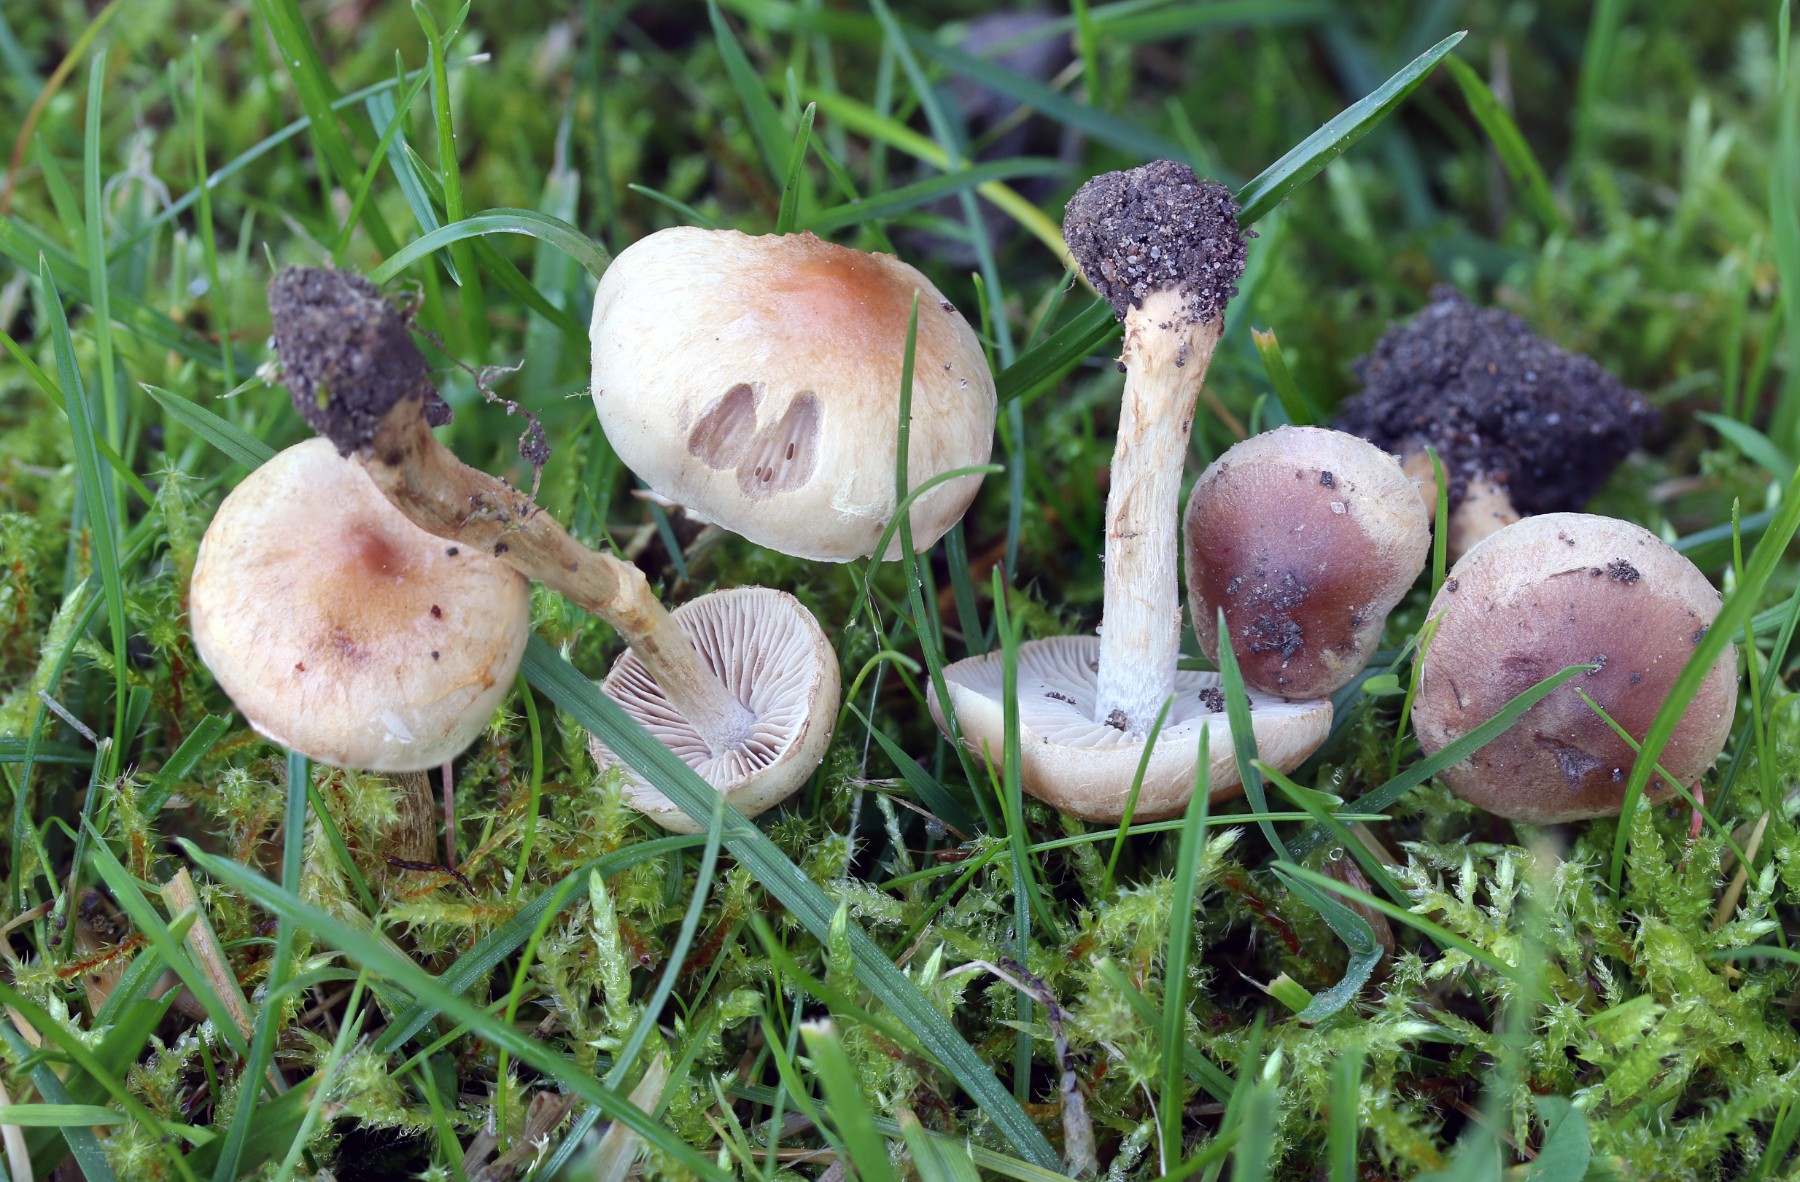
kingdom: Fungi
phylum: Basidiomycota
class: Agaricomycetes
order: Agaricales
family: Hymenogastraceae
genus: Hebeloma
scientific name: Hebeloma mesophaeum
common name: lerbrun tåreblad
